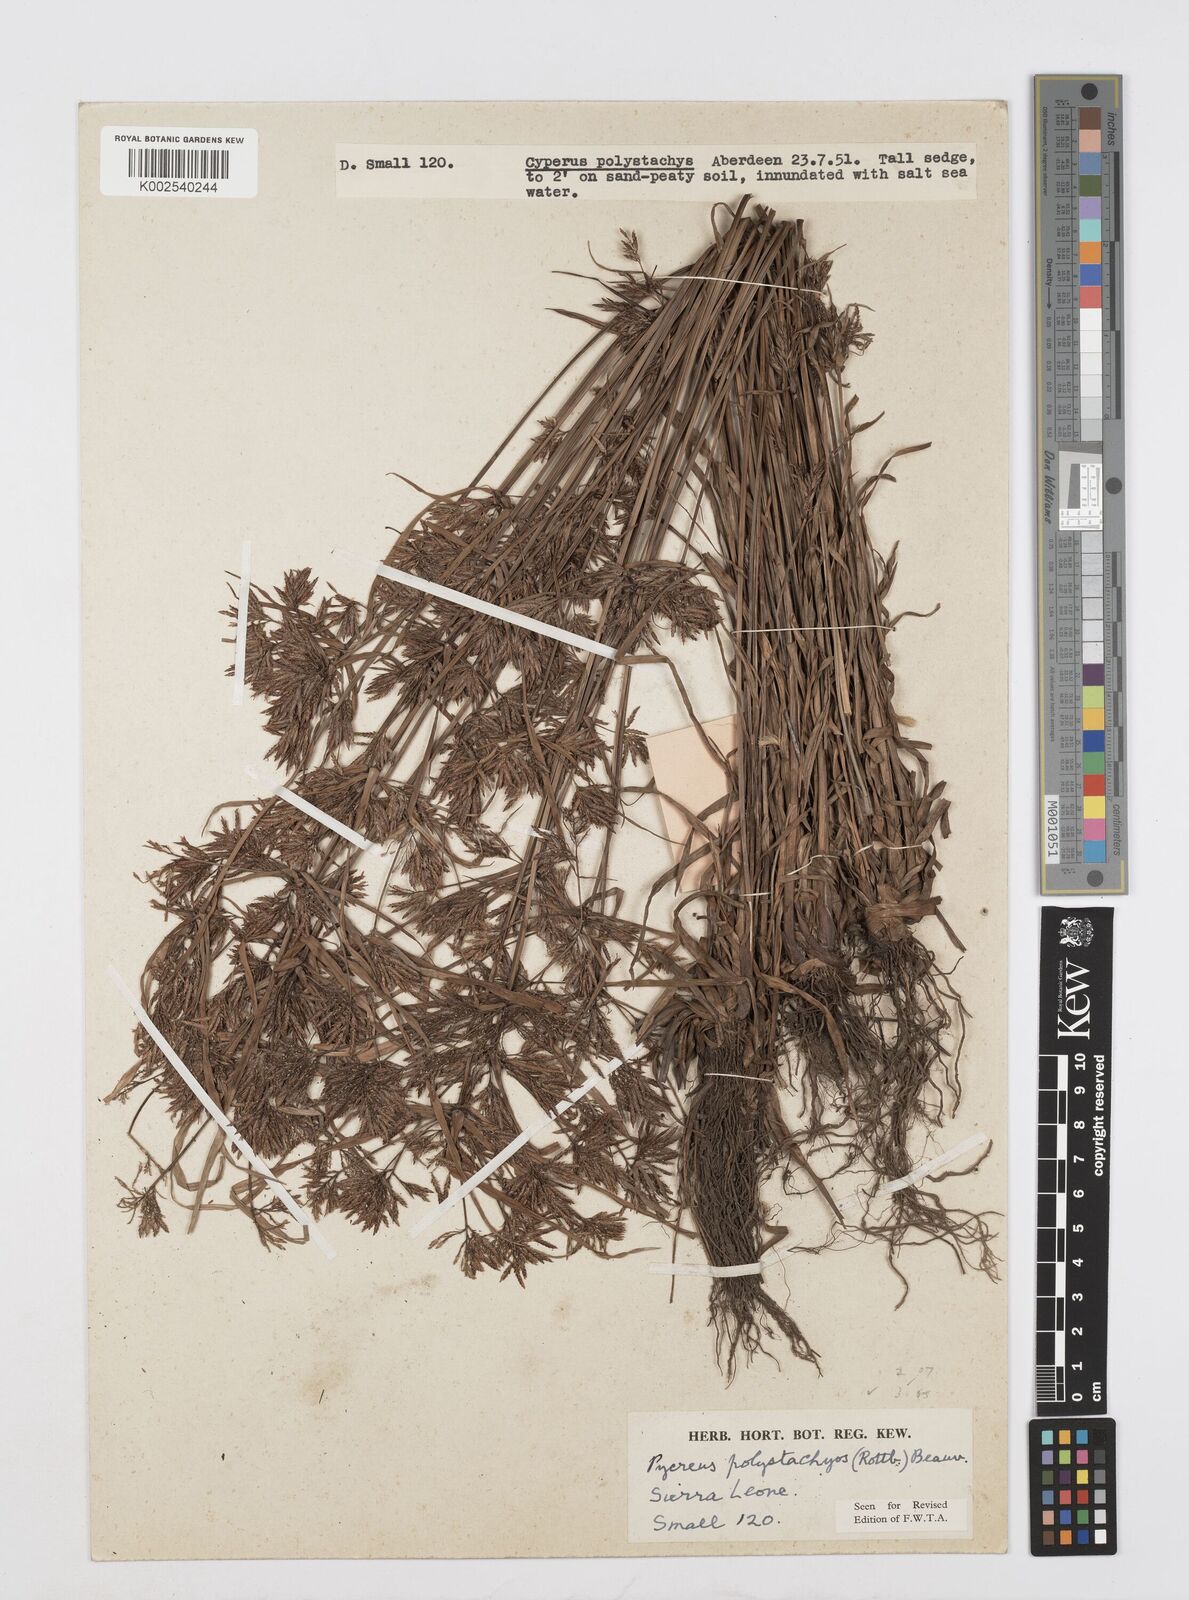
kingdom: Plantae
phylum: Tracheophyta
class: Liliopsida
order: Poales
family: Cyperaceae
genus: Cyperus
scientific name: Cyperus polystachyos
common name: Bunchy flat sedge
